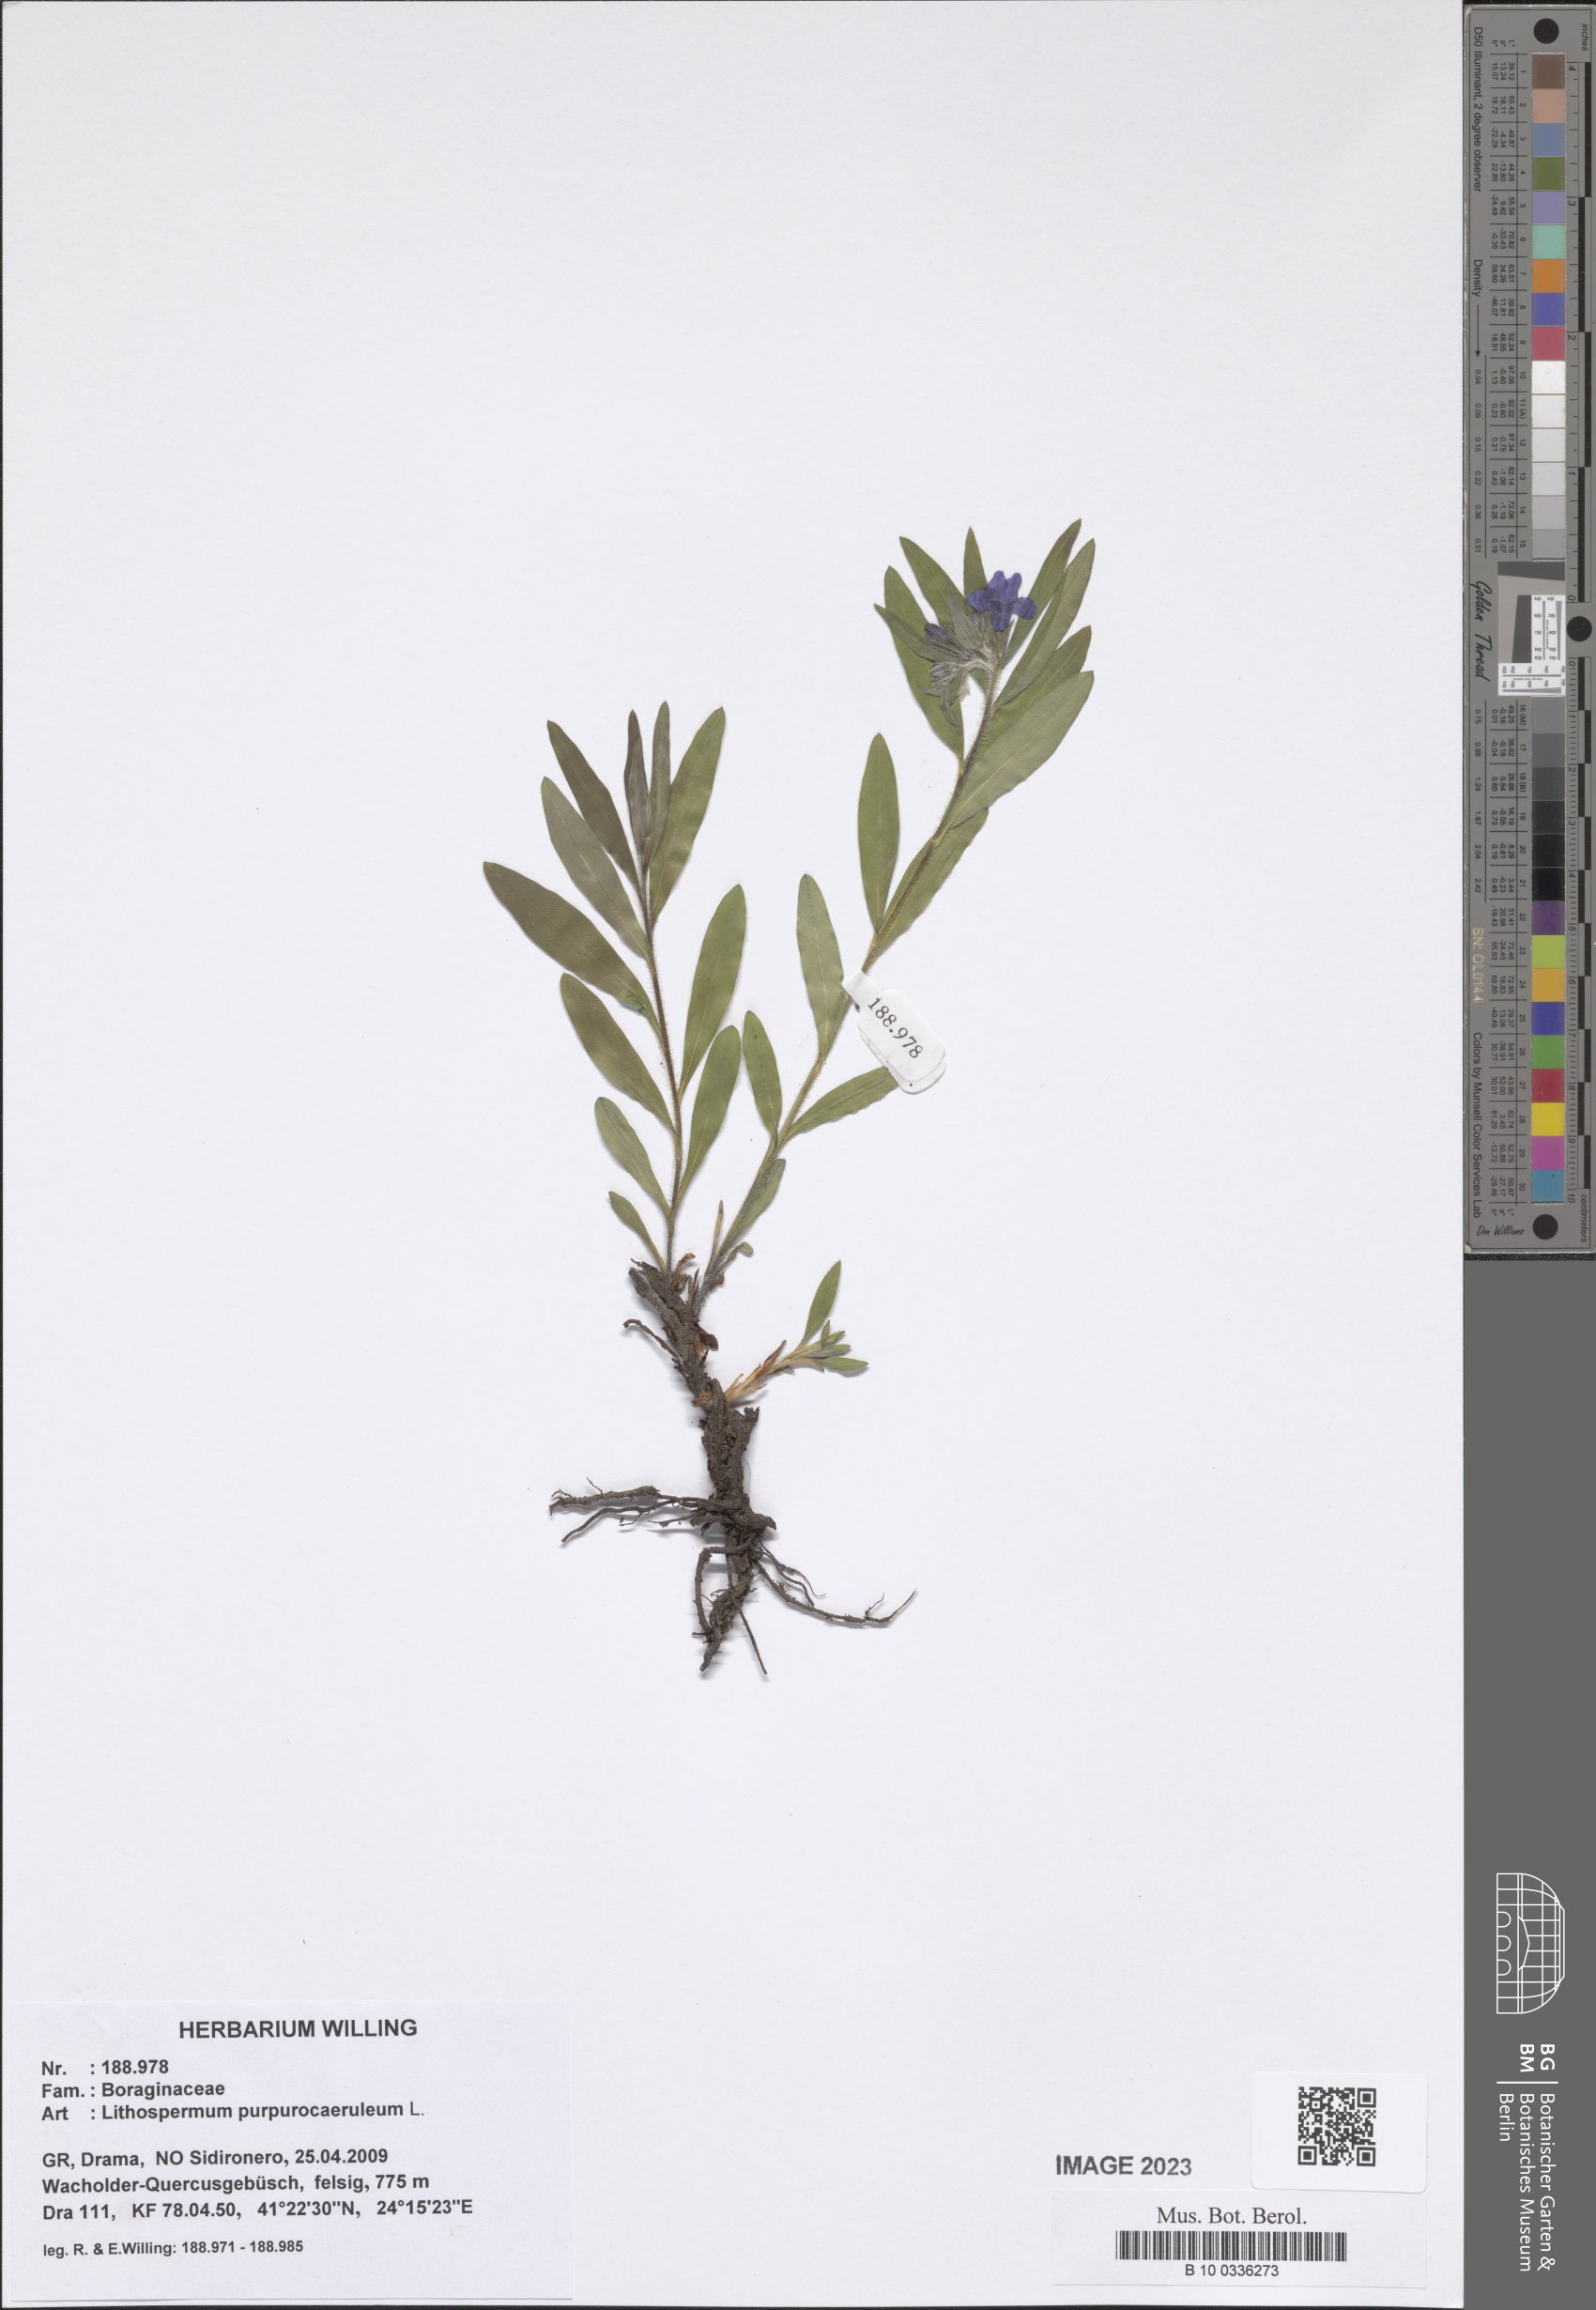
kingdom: Plantae
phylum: Tracheophyta
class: Magnoliopsida
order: Boraginales
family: Boraginaceae
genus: Aegonychon
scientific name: Aegonychon purpurocaeruleum
